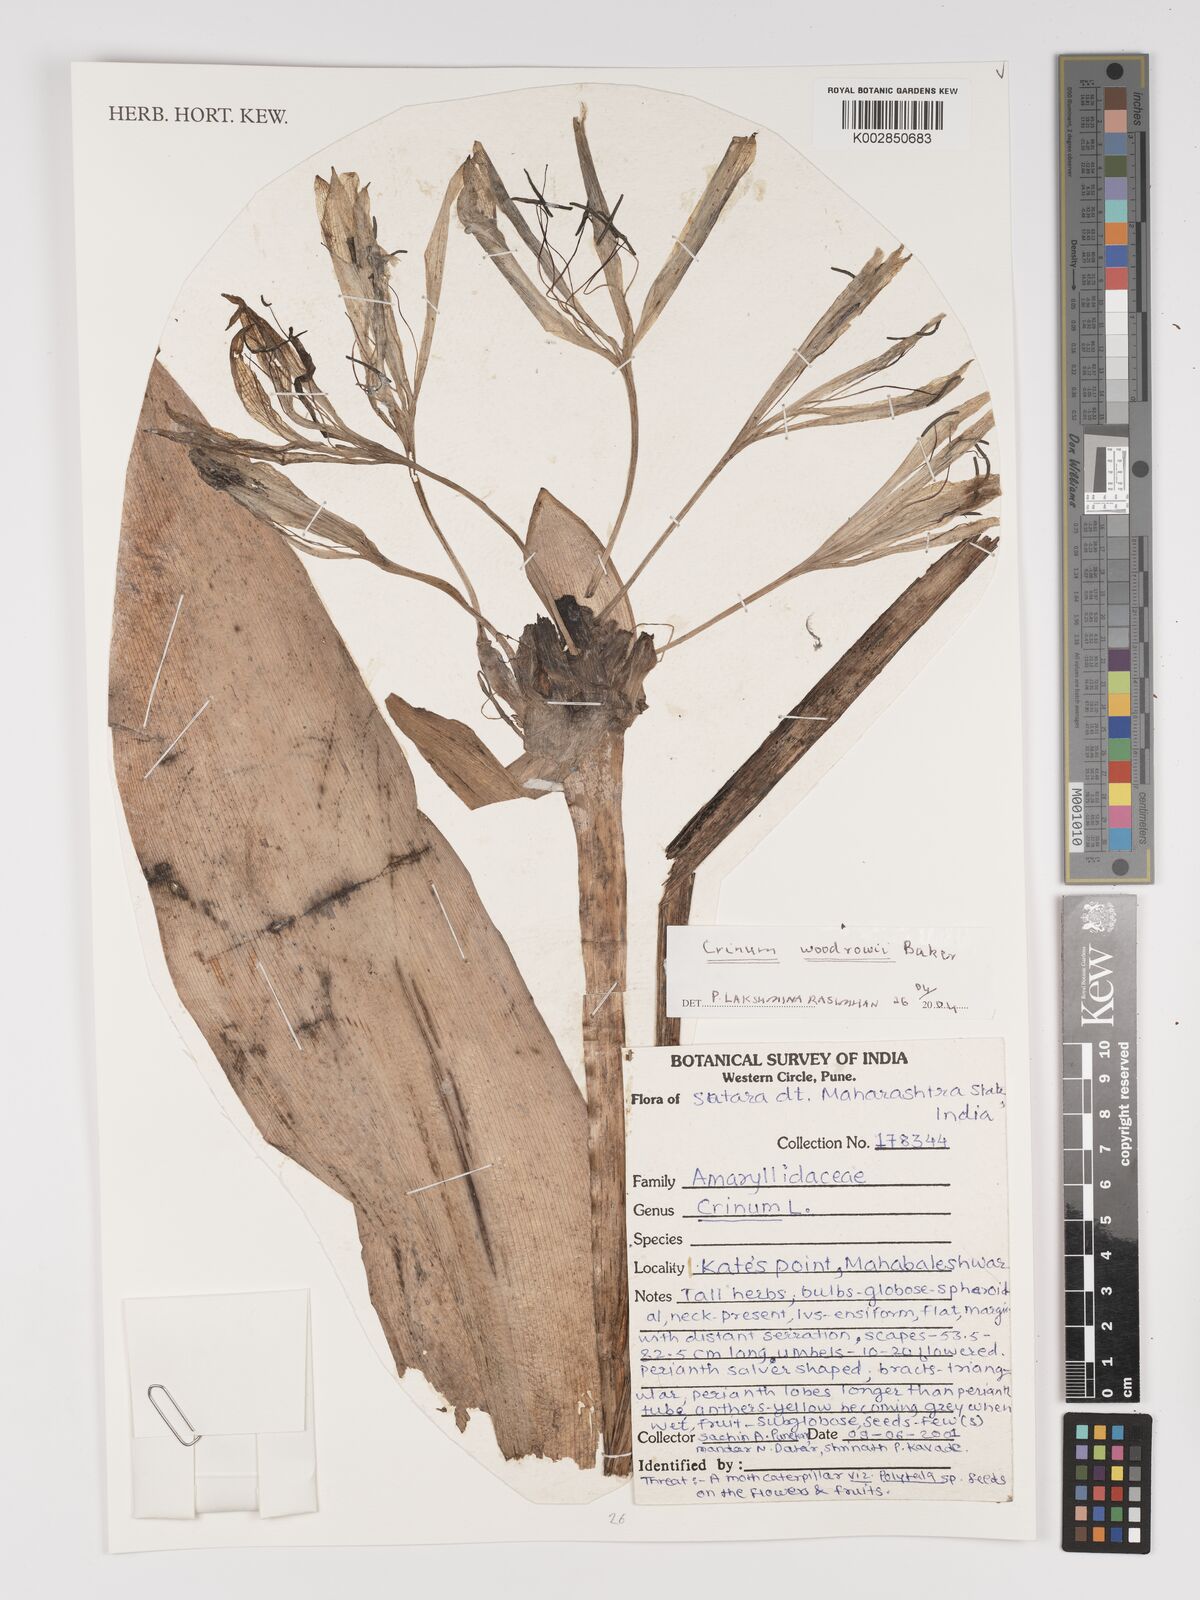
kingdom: Plantae
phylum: Tracheophyta
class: Liliopsida
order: Asparagales
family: Amaryllidaceae
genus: Crinum
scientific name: Crinum woodrowii
